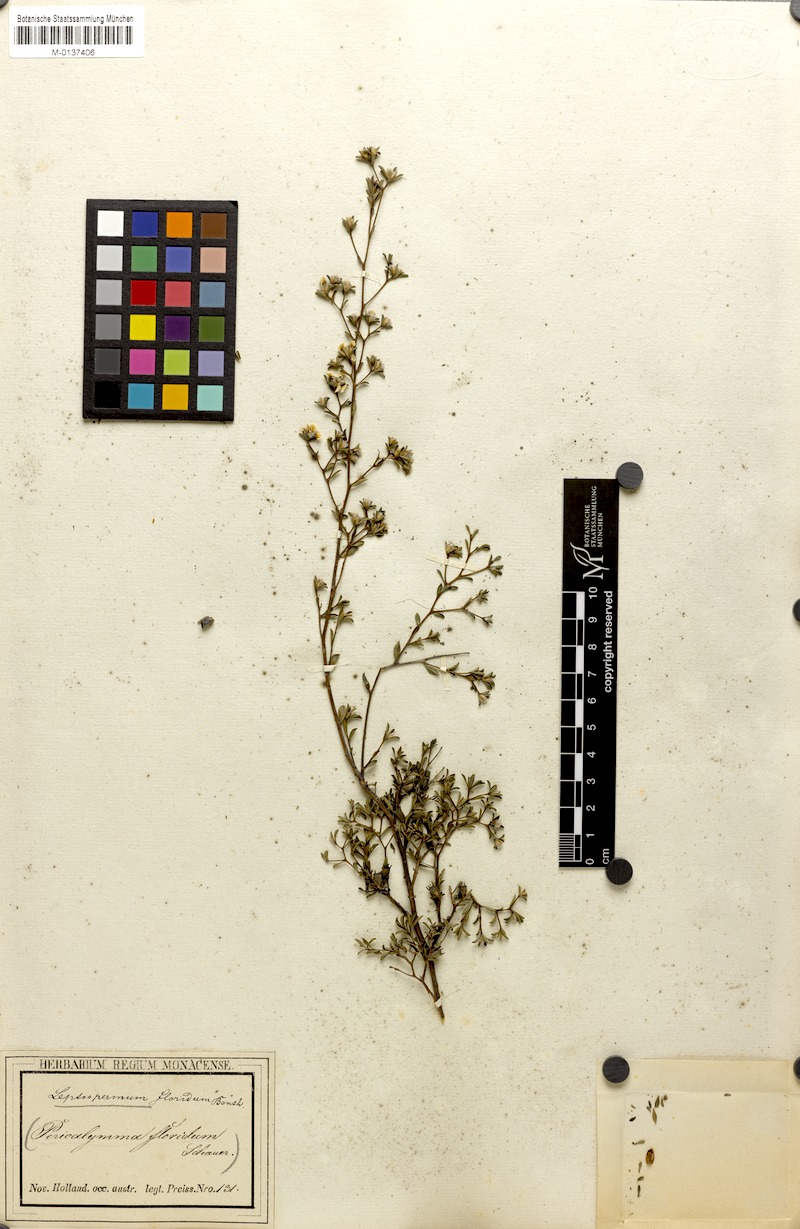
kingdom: Plantae
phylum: Tracheophyta
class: Magnoliopsida
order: Myrtales
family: Myrtaceae
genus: Pericalymma
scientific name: Pericalymma ellipticum
